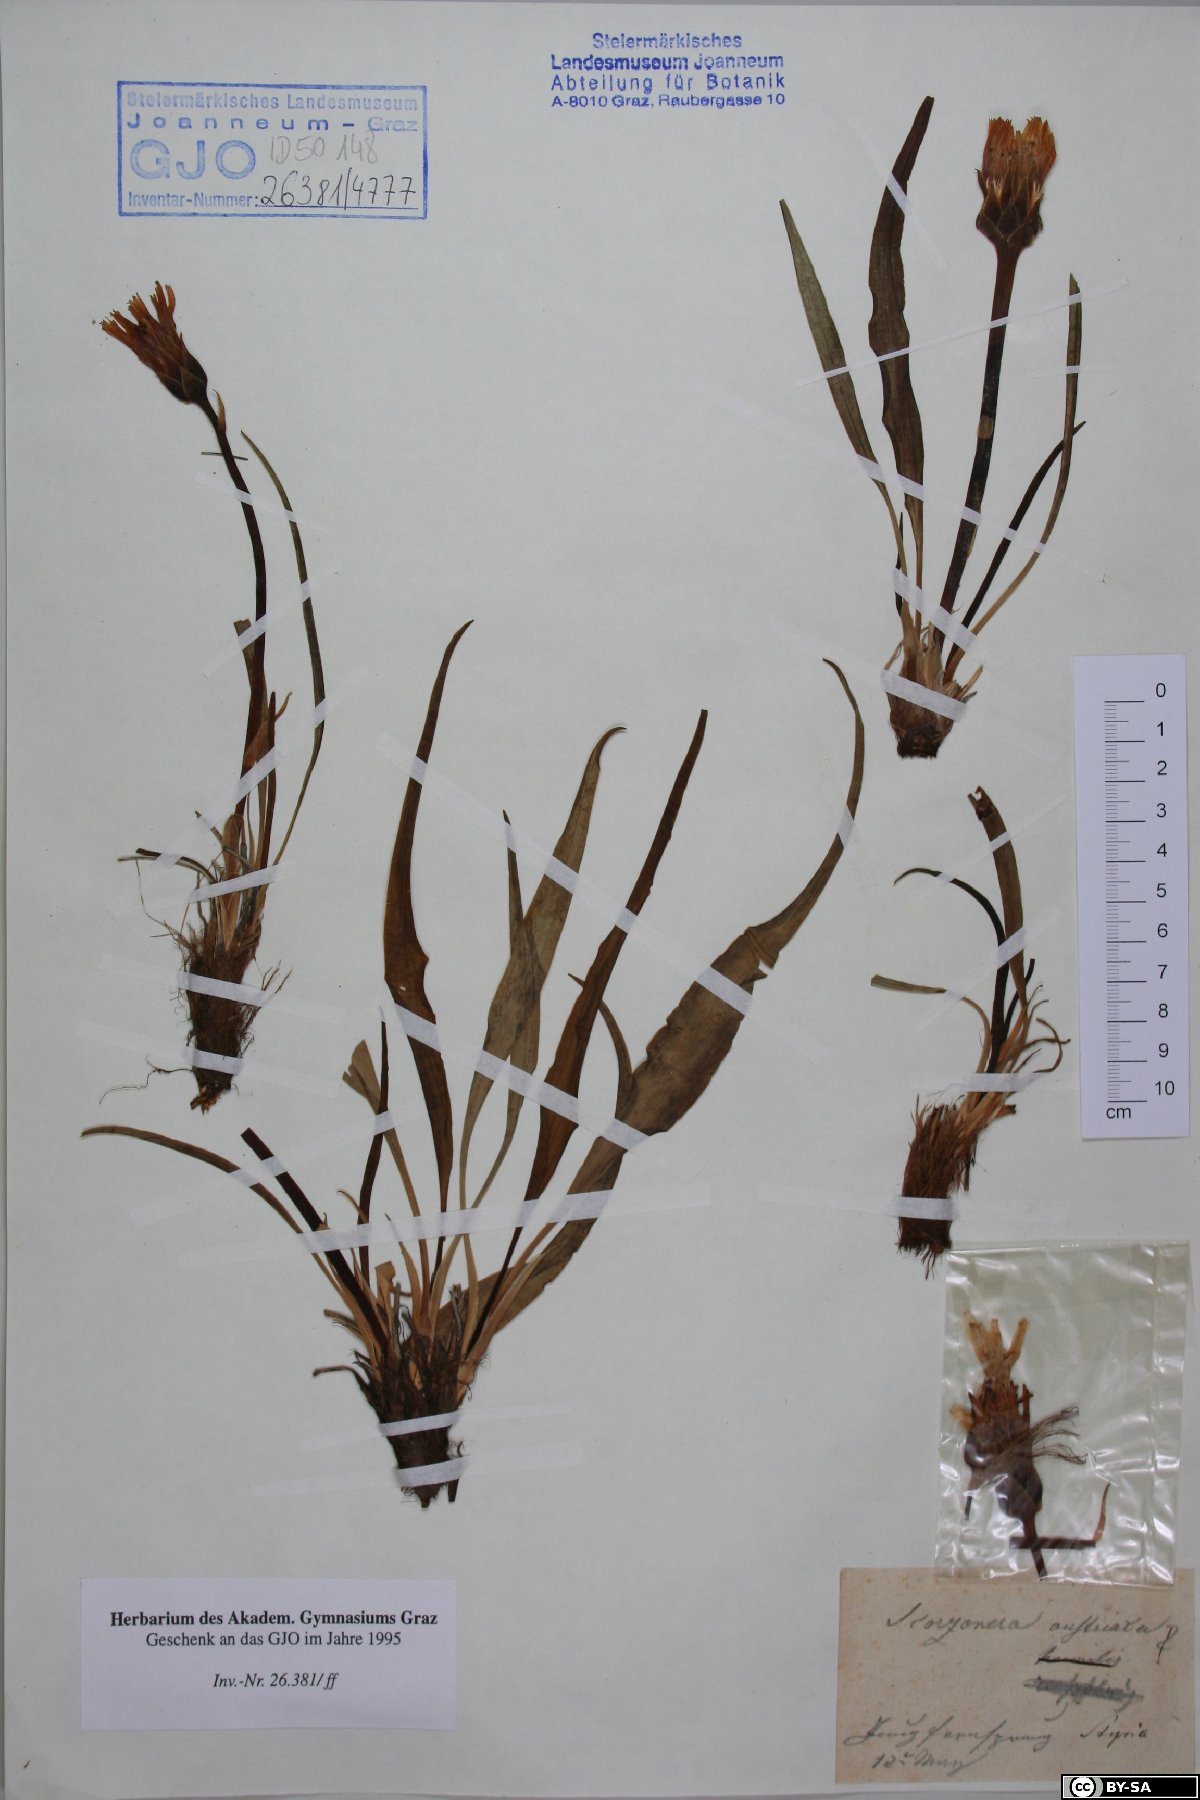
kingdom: Plantae
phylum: Tracheophyta
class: Magnoliopsida
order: Asterales
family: Asteraceae
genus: Takhtajaniantha
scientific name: Takhtajaniantha austriaca
